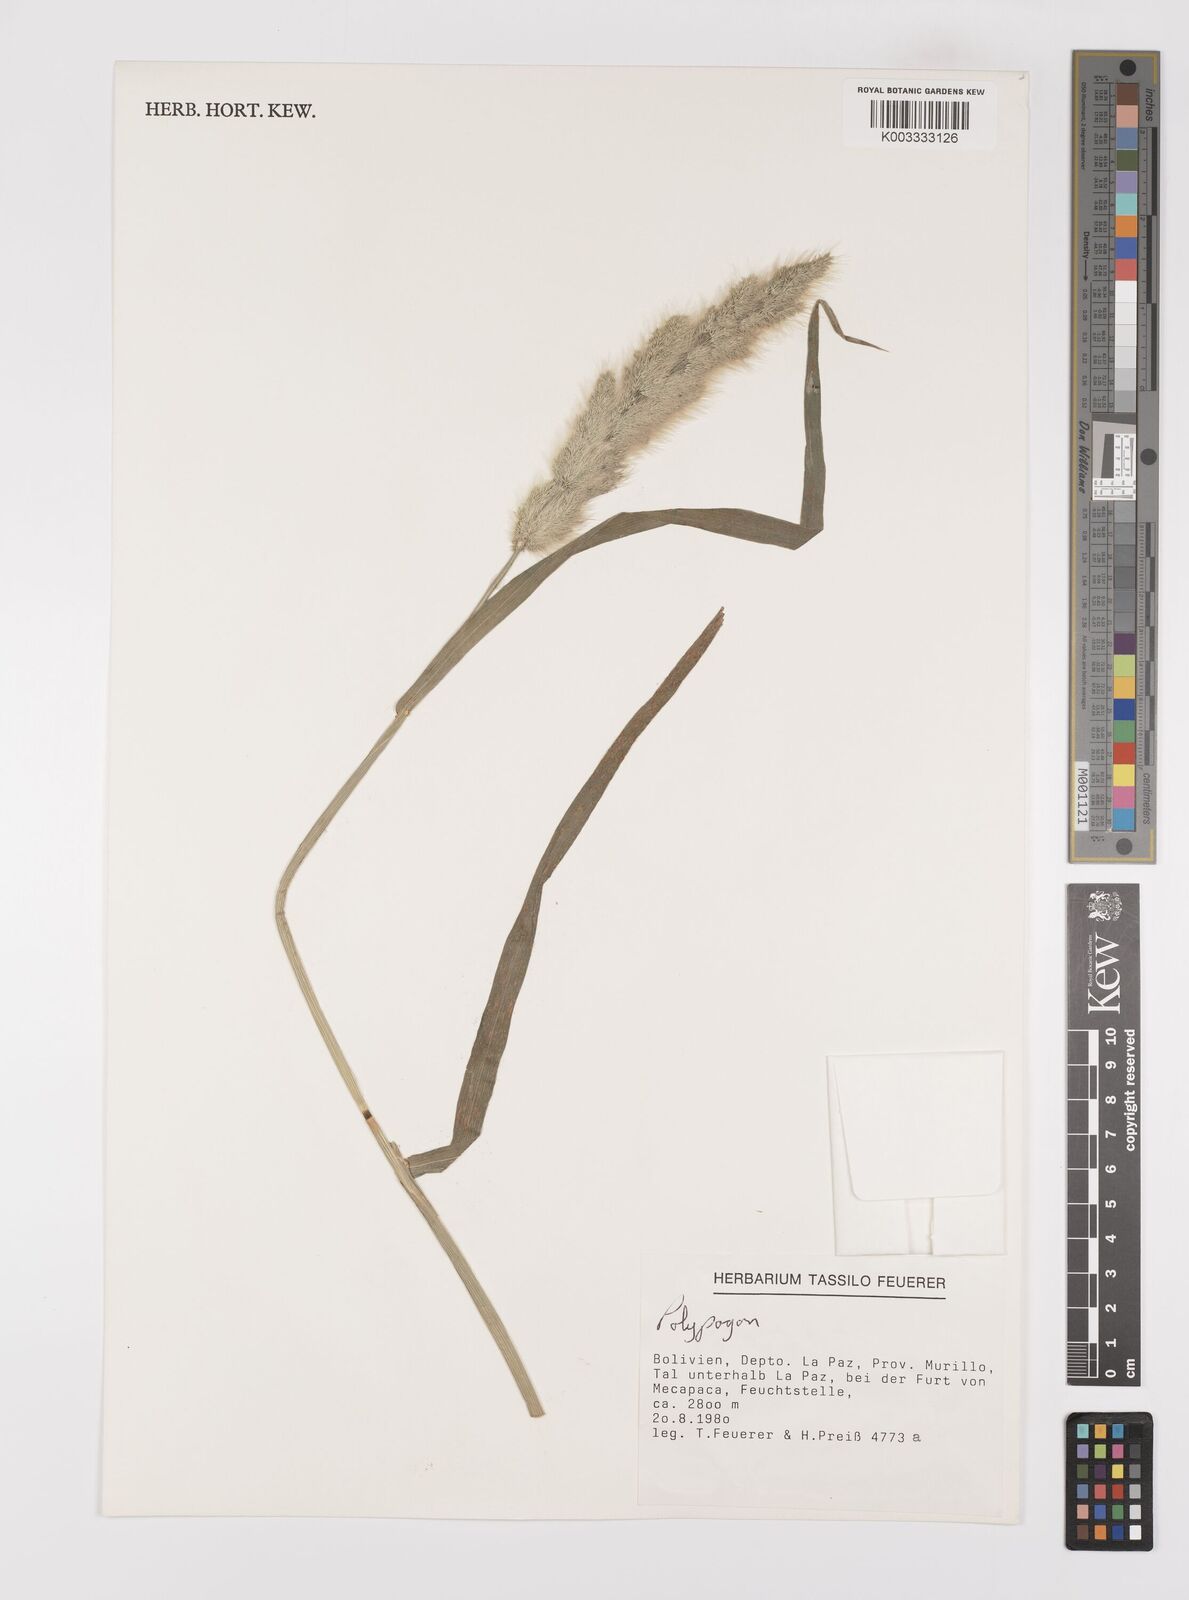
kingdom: Plantae
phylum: Tracheophyta
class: Liliopsida
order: Poales
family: Poaceae
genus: Polypogon
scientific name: Polypogon monspeliensis
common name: Annual rabbitsfoot grass
